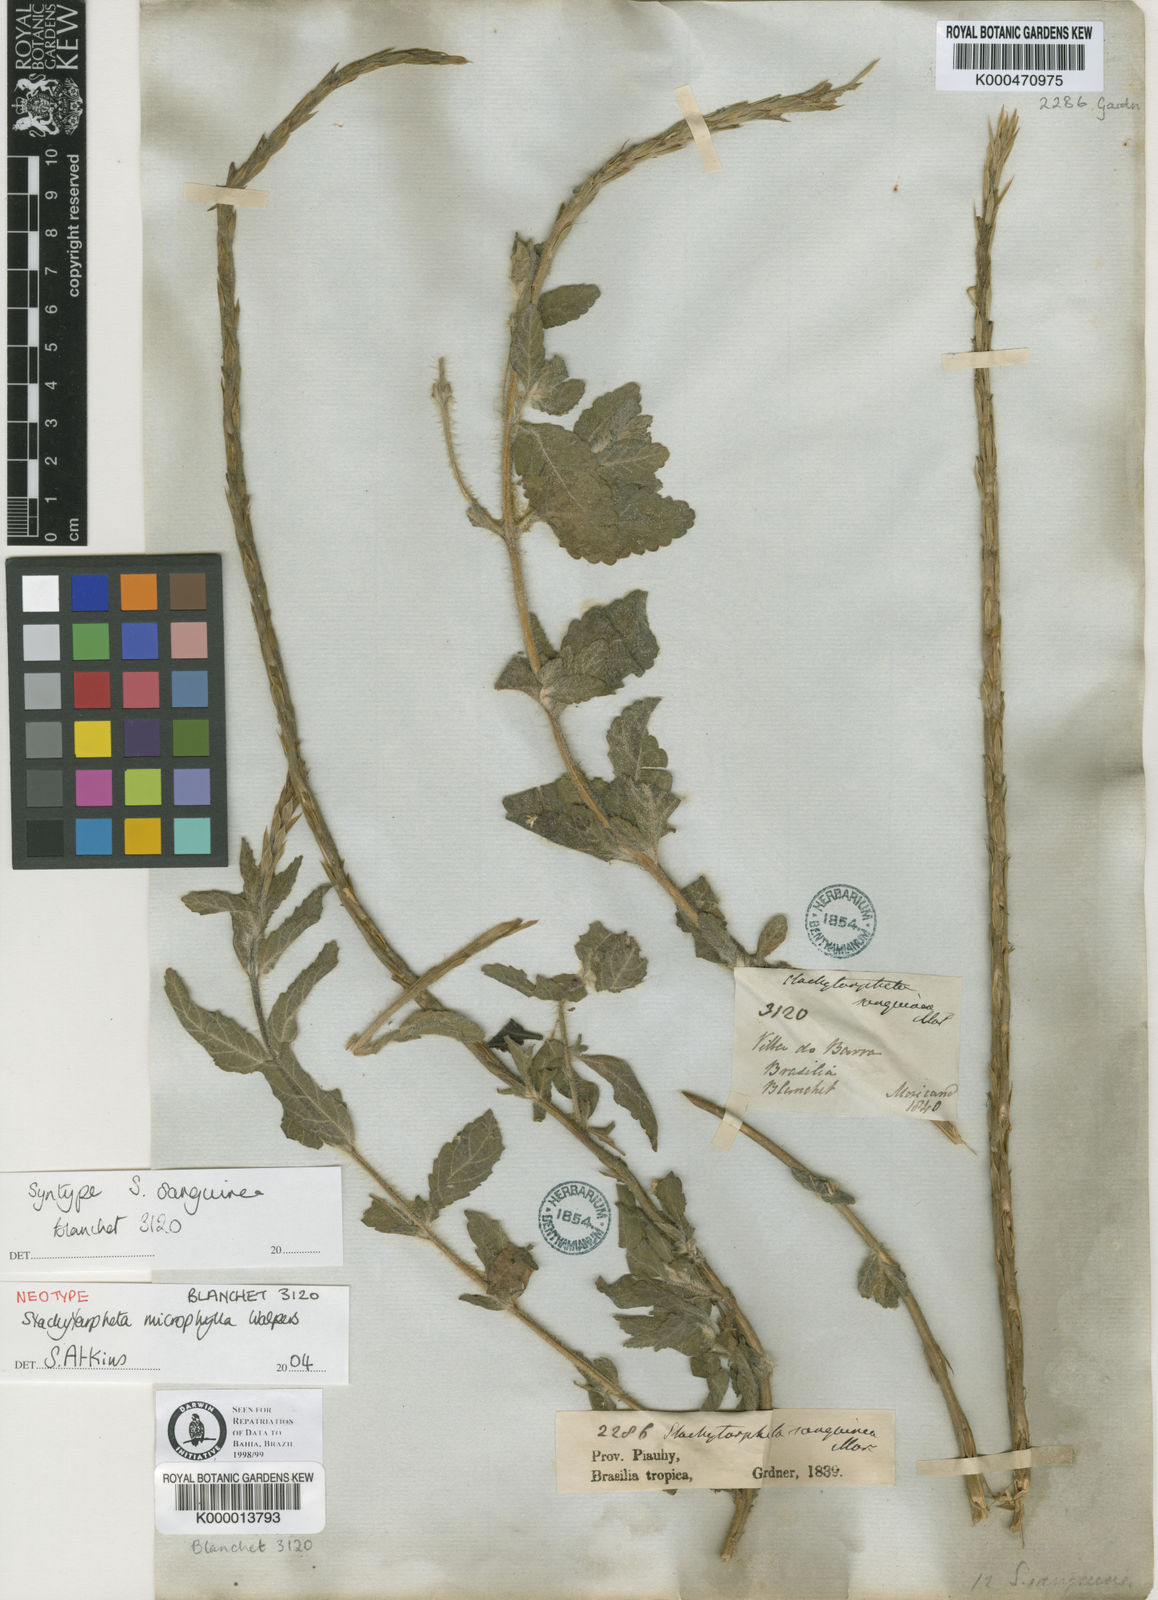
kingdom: Plantae
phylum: Tracheophyta
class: Magnoliopsida
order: Lamiales
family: Verbenaceae
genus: Stachytarpheta
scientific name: Stachytarpheta microphylla
